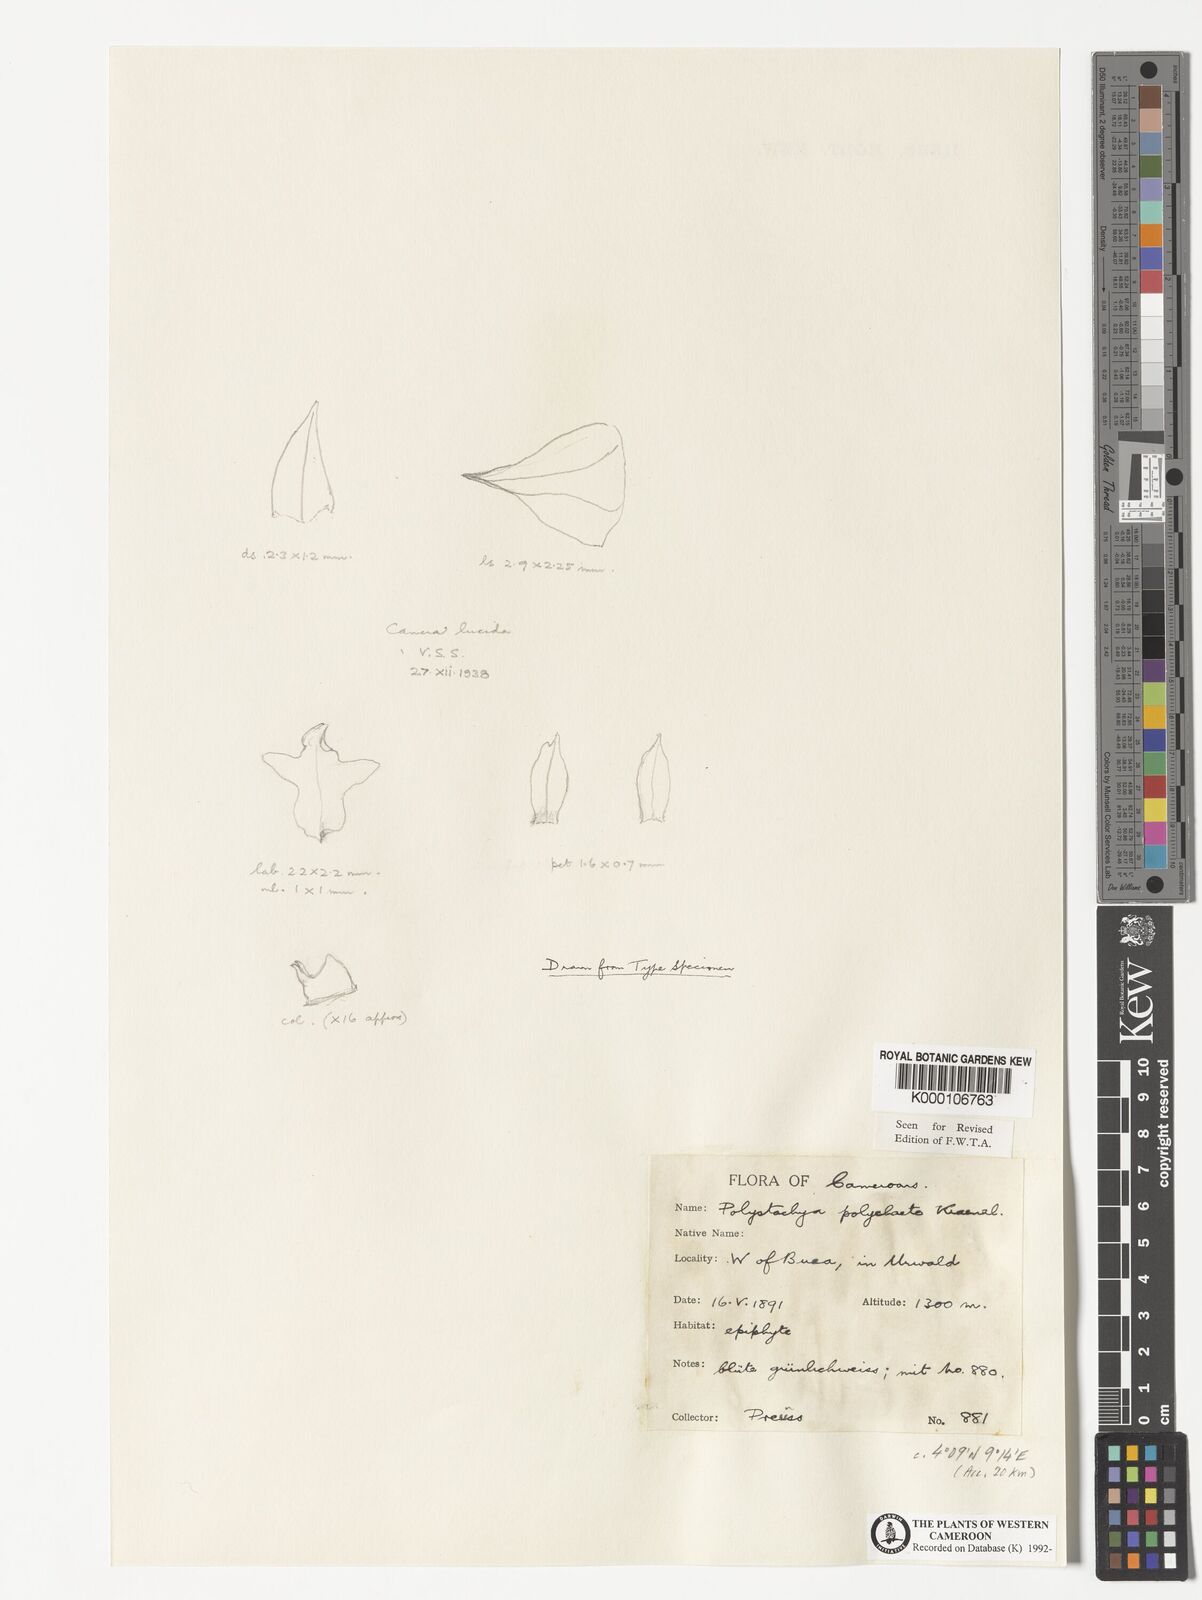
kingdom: Plantae
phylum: Tracheophyta
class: Liliopsida
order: Asparagales
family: Orchidaceae
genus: Polystachya
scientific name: Polystachya polychaete
